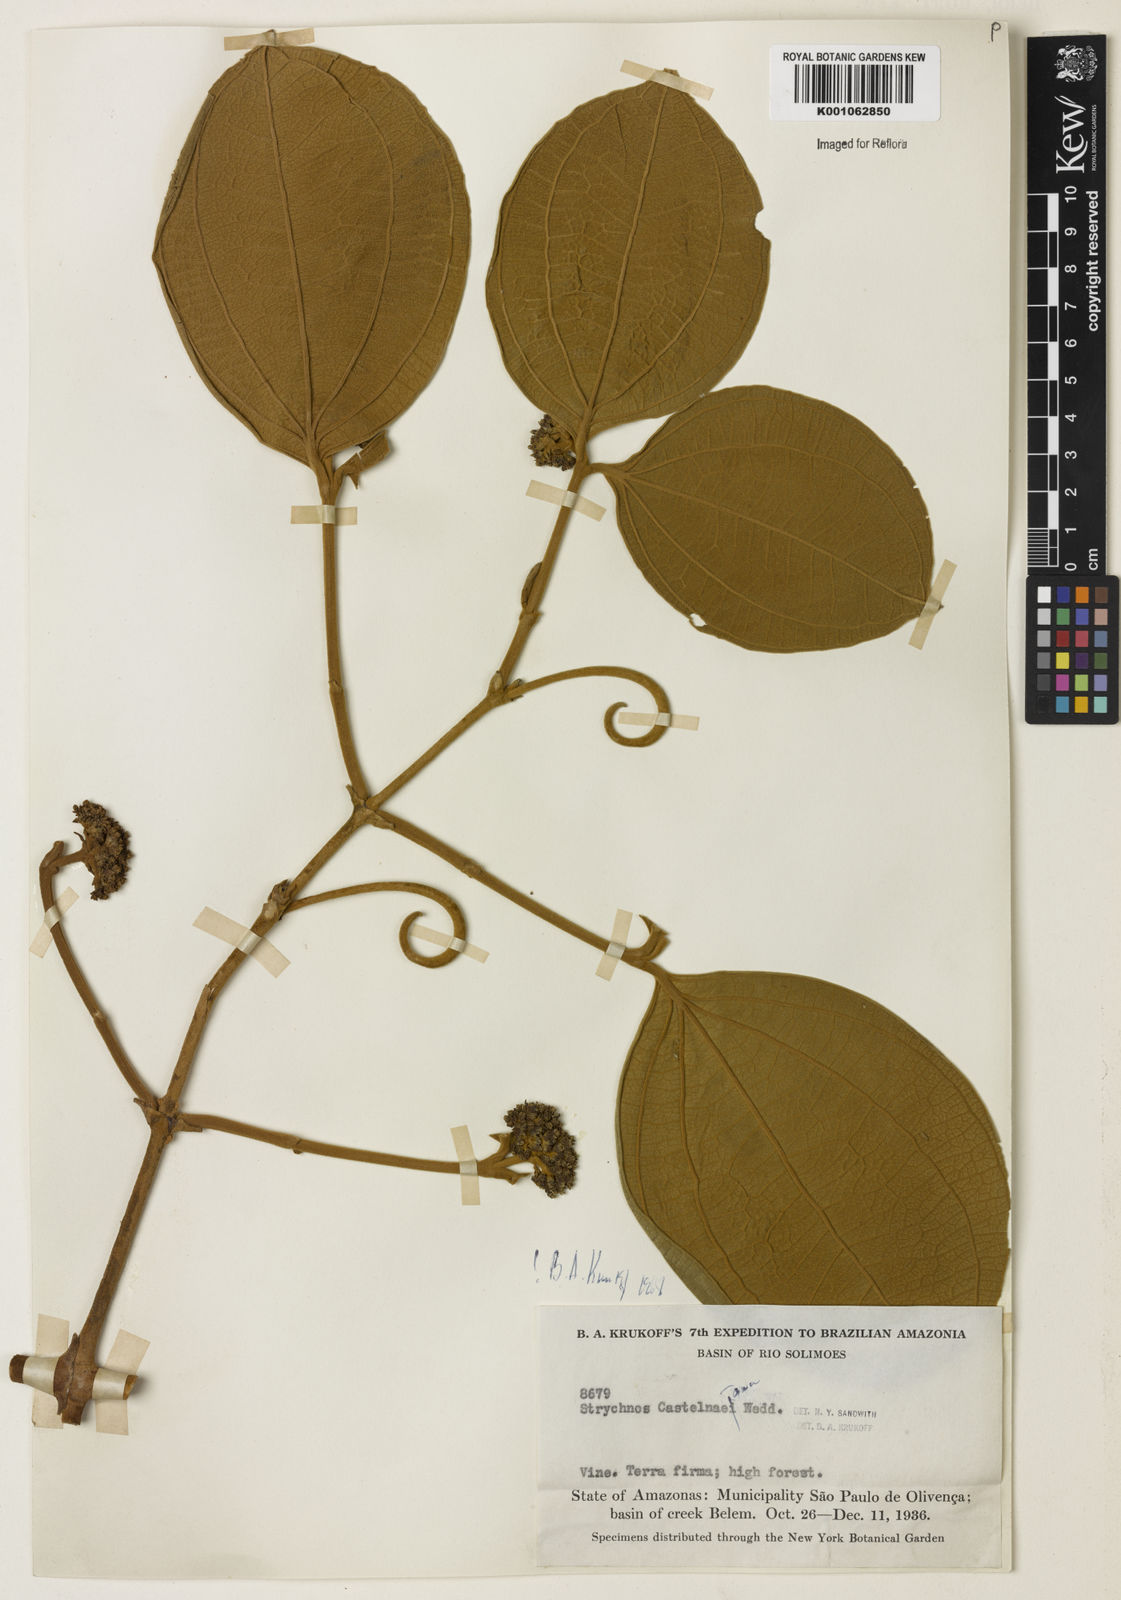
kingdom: Plantae
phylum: Tracheophyta
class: Magnoliopsida
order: Gentianales
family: Loganiaceae
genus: Strychnos
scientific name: Strychnos
